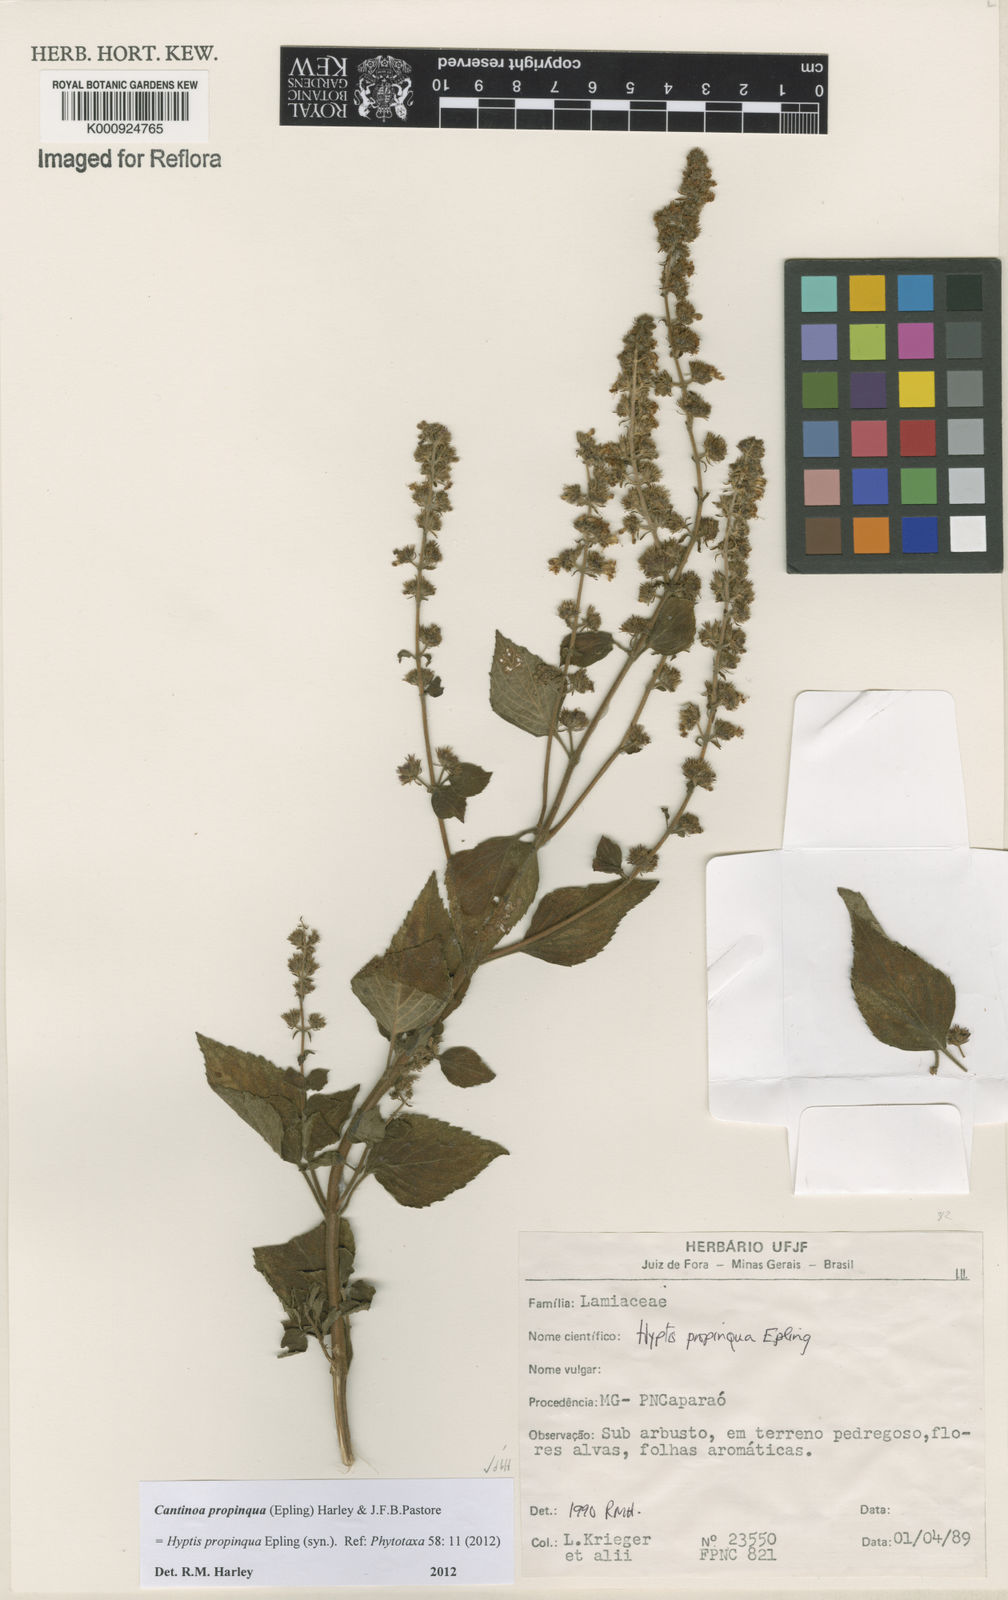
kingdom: Plantae
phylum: Tracheophyta
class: Magnoliopsida
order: Lamiales
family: Lamiaceae
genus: Cantinoa
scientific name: Cantinoa propinqua
